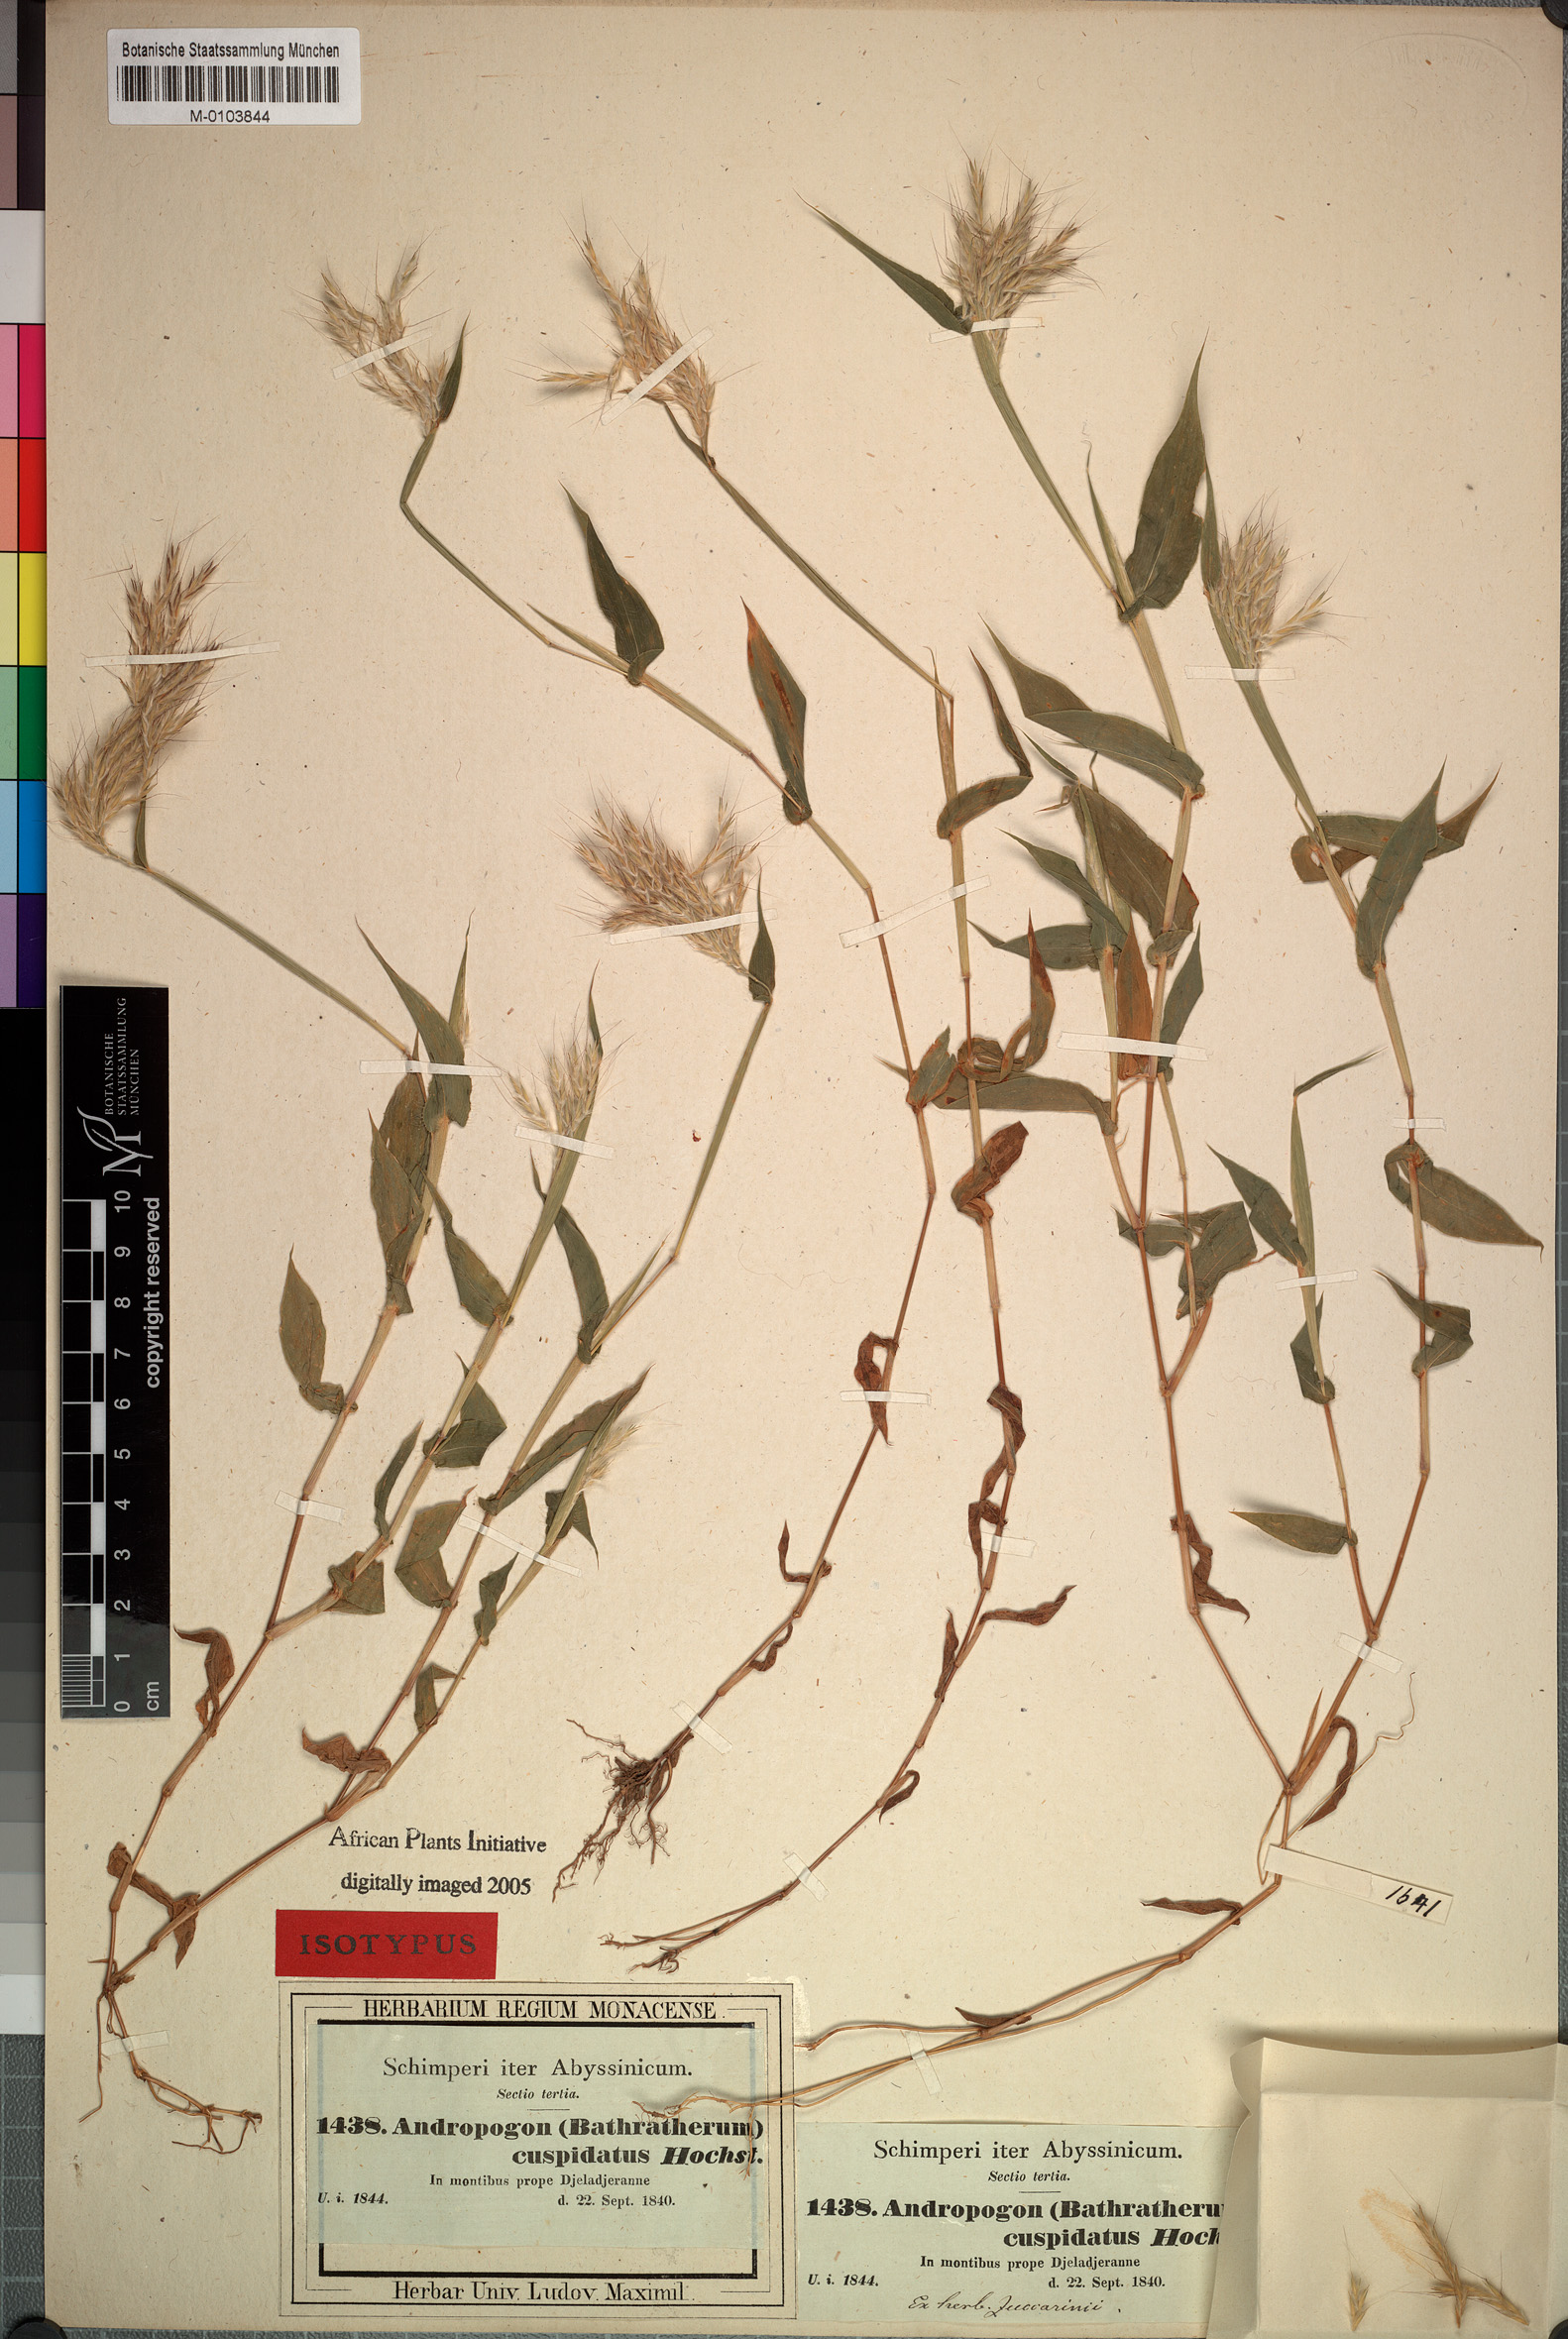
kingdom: Plantae
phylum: Tracheophyta
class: Liliopsida
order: Poales
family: Poaceae
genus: Arthraxon
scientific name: Arthraxon cuspidatus
